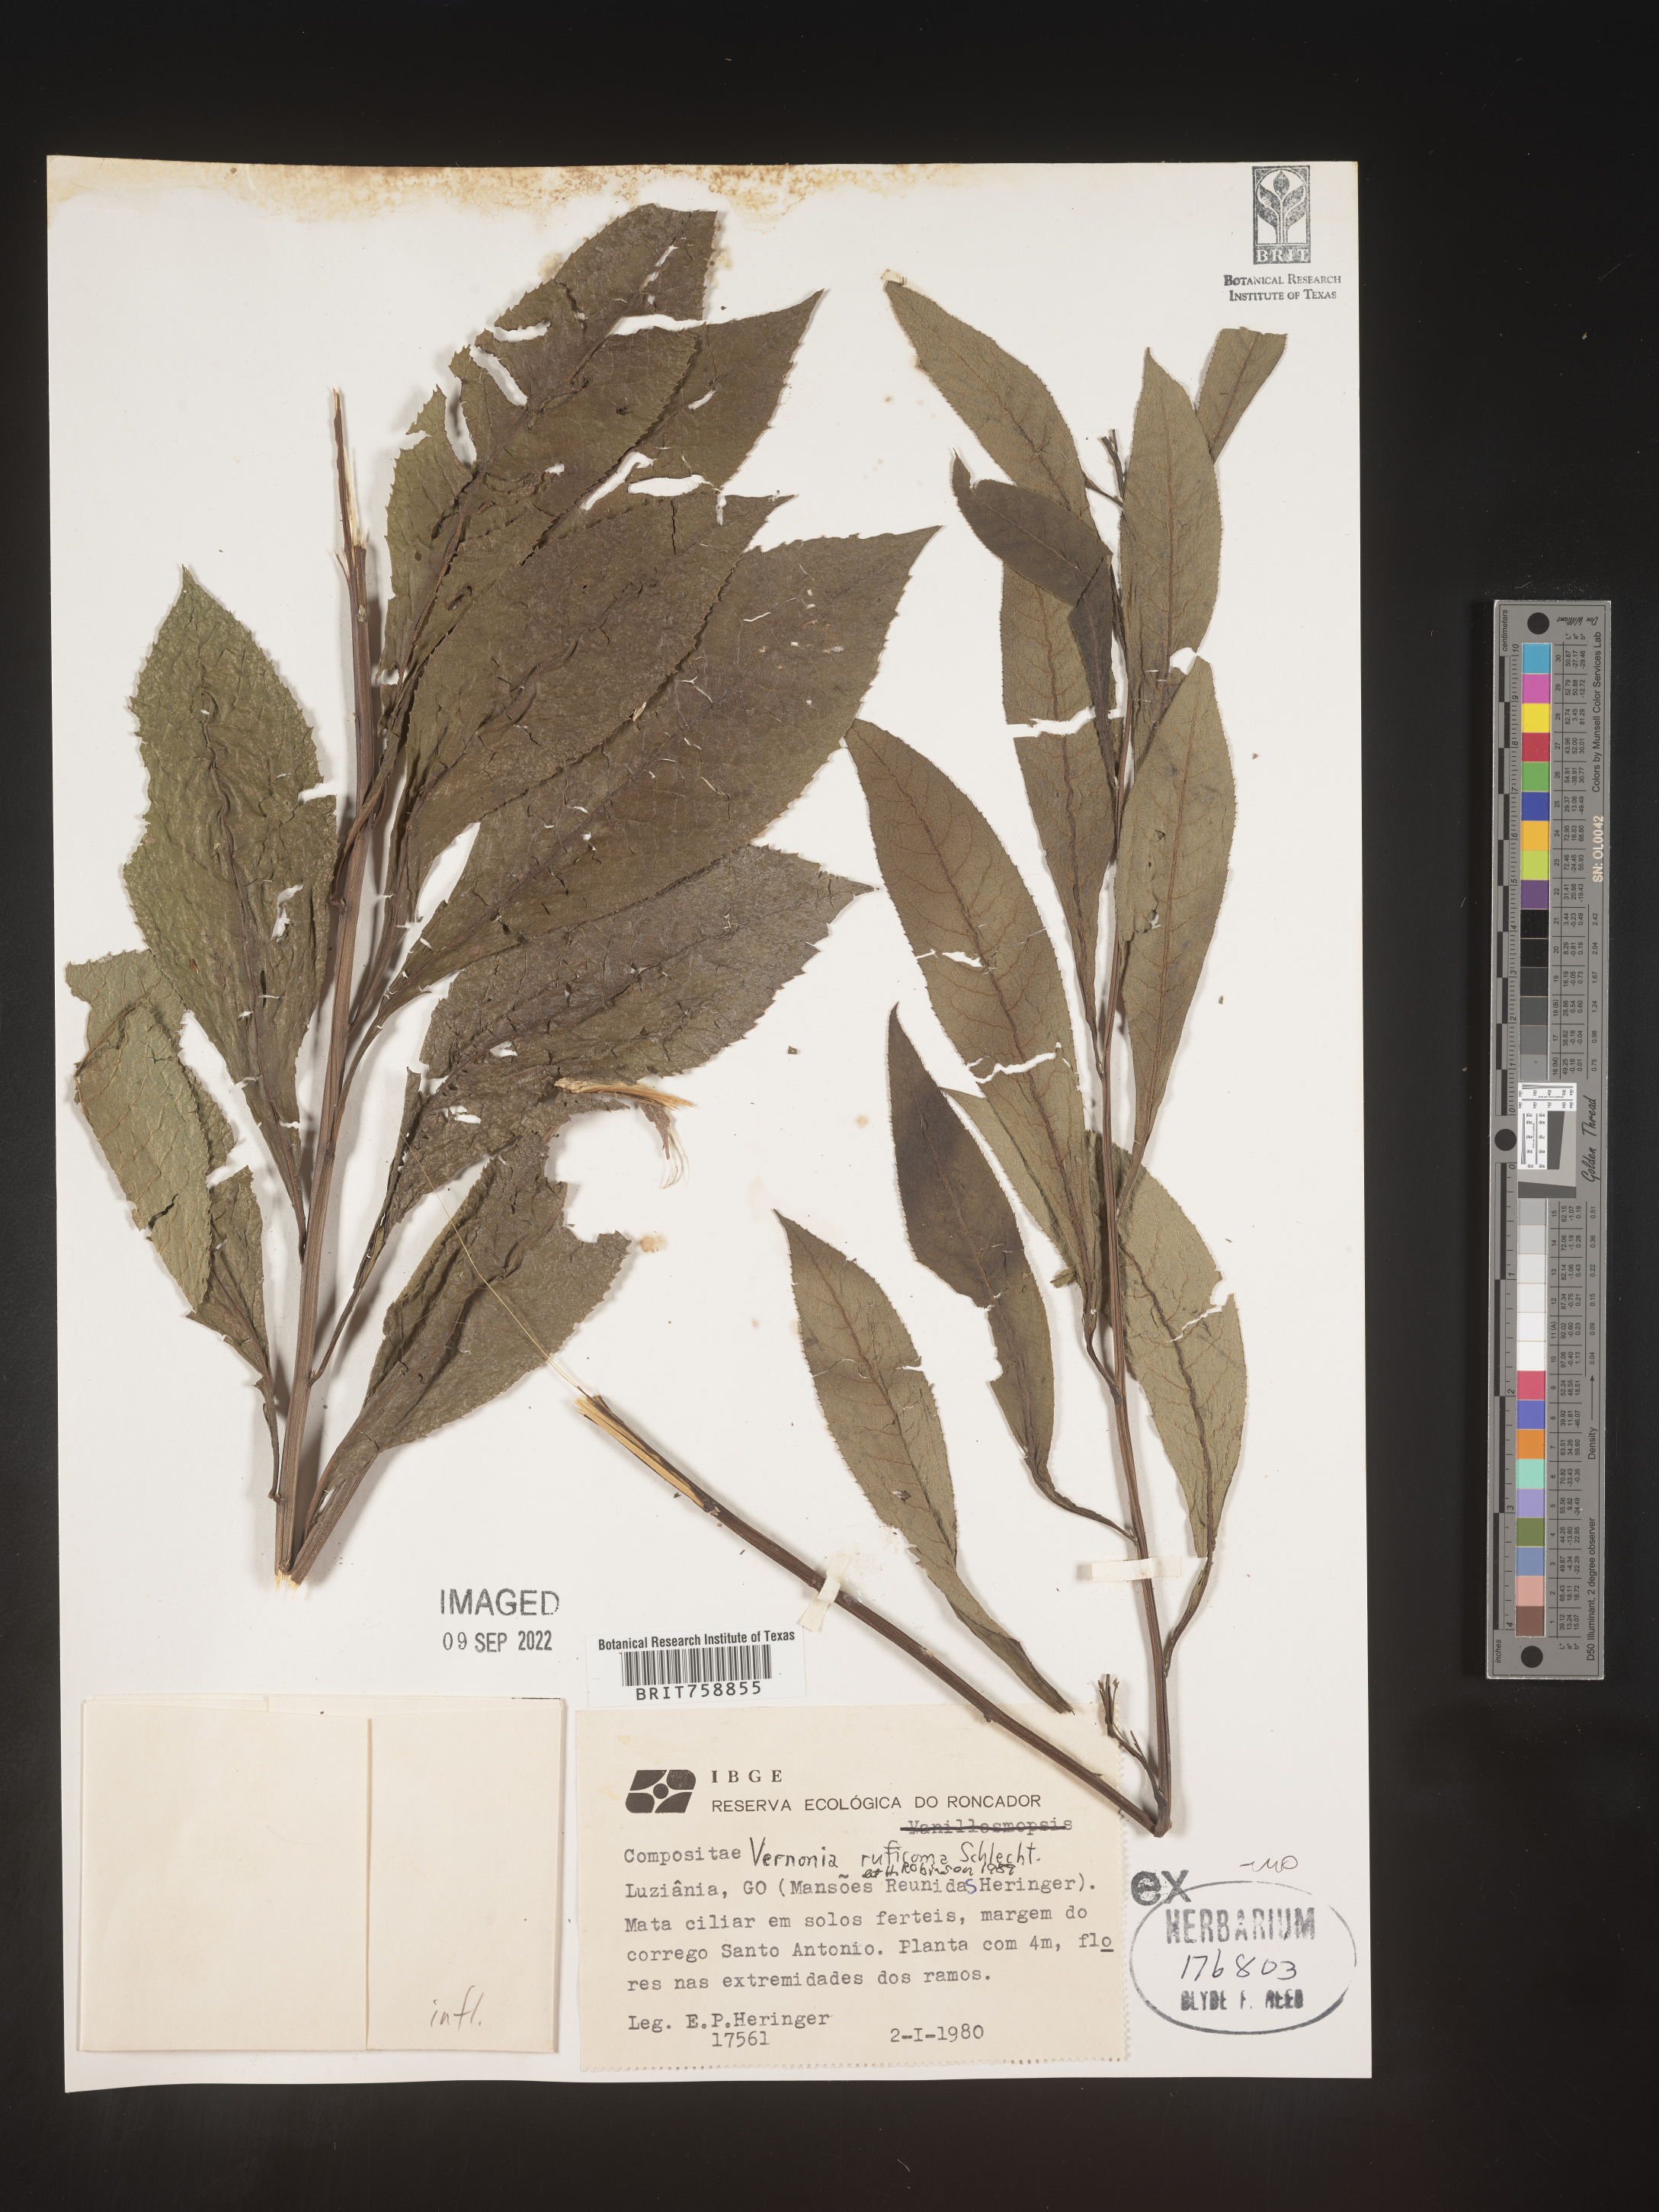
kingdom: Plantae
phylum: Tracheophyta
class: Magnoliopsida
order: Asterales
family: Asteraceae
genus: Vernonia
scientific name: Vernonia
